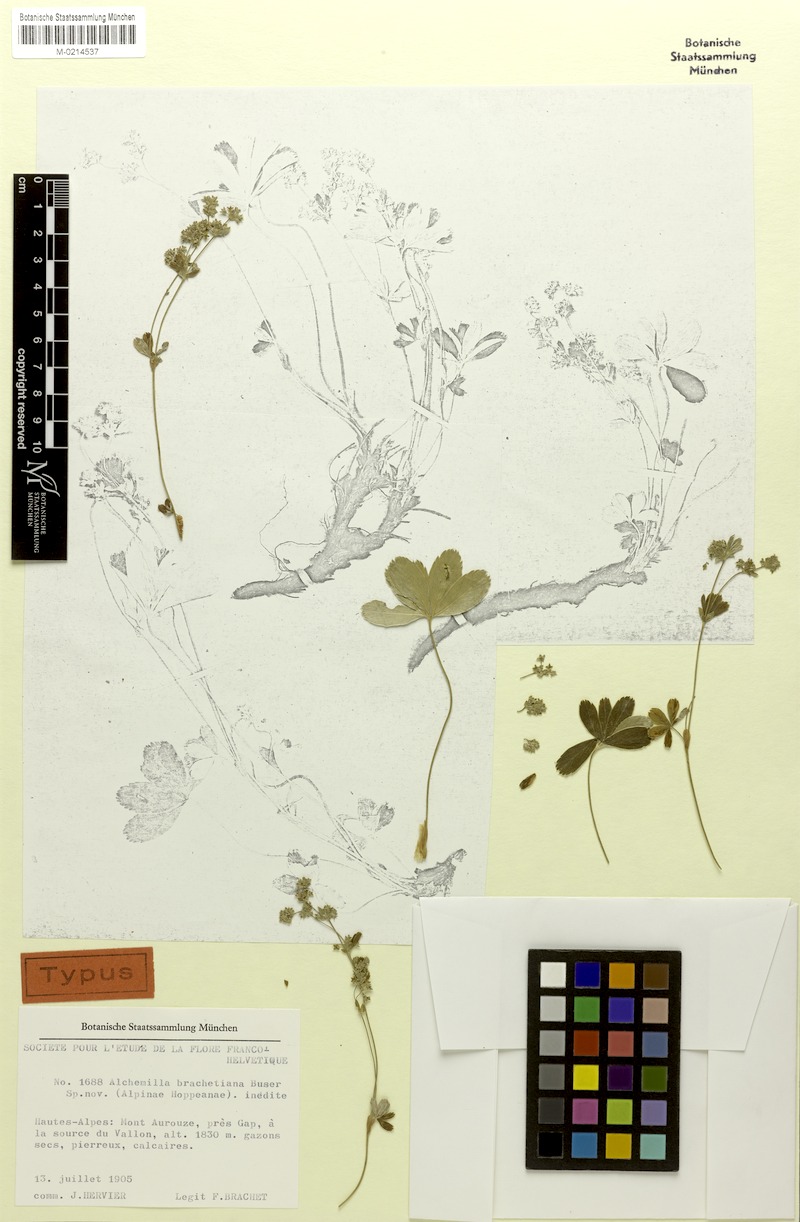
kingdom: Plantae
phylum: Tracheophyta
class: Magnoliopsida
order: Rosales
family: Rosaceae
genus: Alchemilla
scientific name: Alchemilla brachetiana
